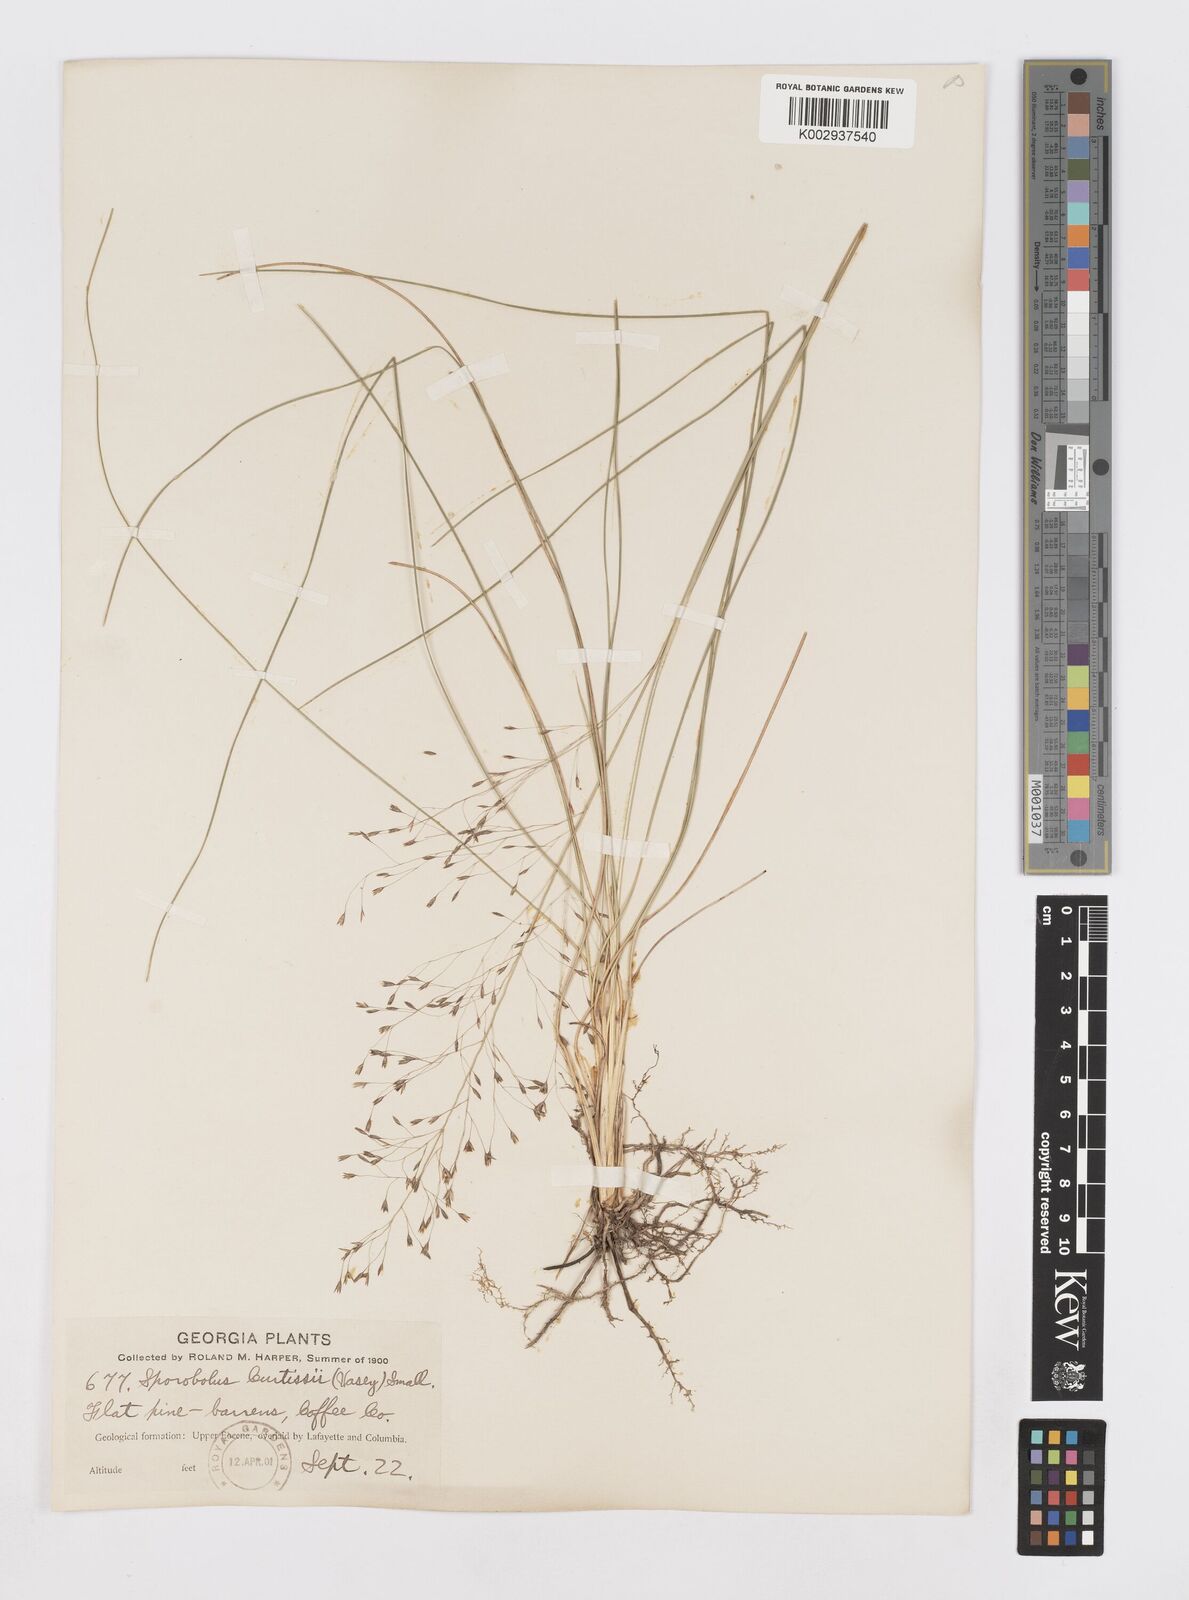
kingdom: Plantae
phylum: Tracheophyta
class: Liliopsida
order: Poales
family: Poaceae
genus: Sporobolus
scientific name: Sporobolus curtissii
